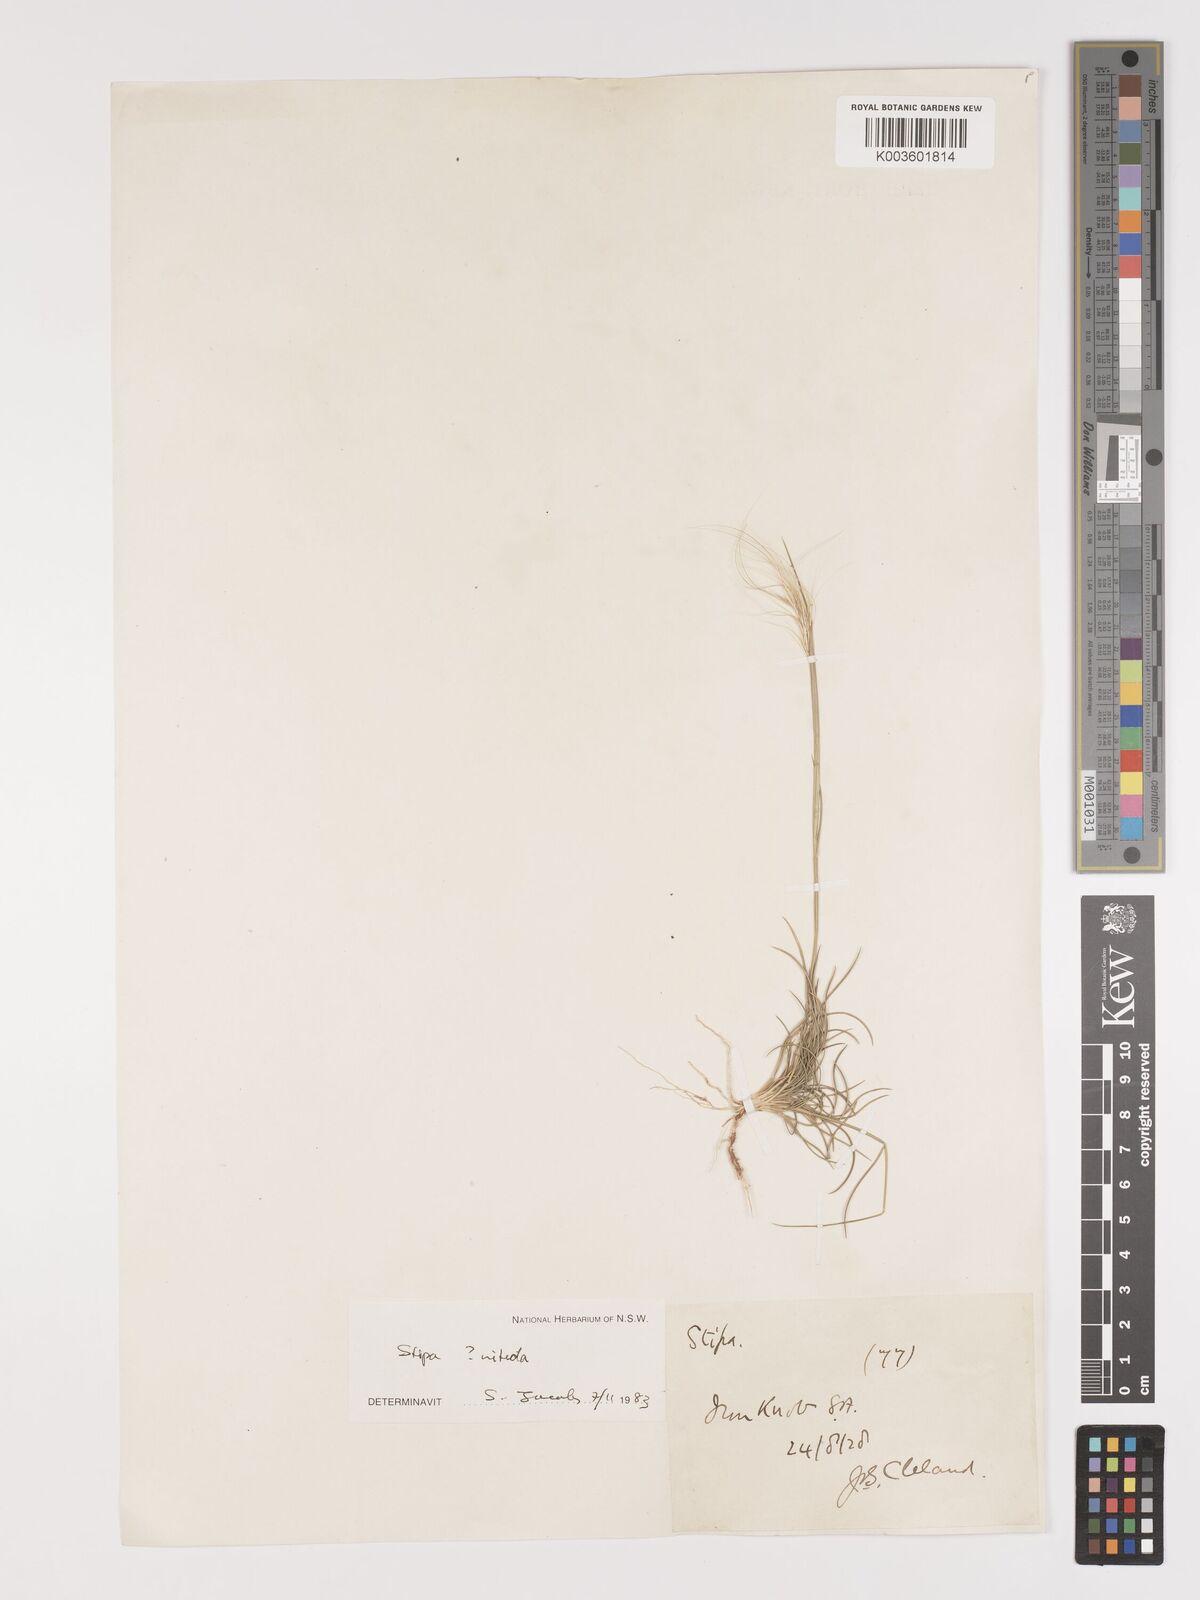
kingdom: Plantae
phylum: Tracheophyta
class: Liliopsida
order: Poales
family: Poaceae
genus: Austrostipa
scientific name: Austrostipa nitida
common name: Balcarra grass
